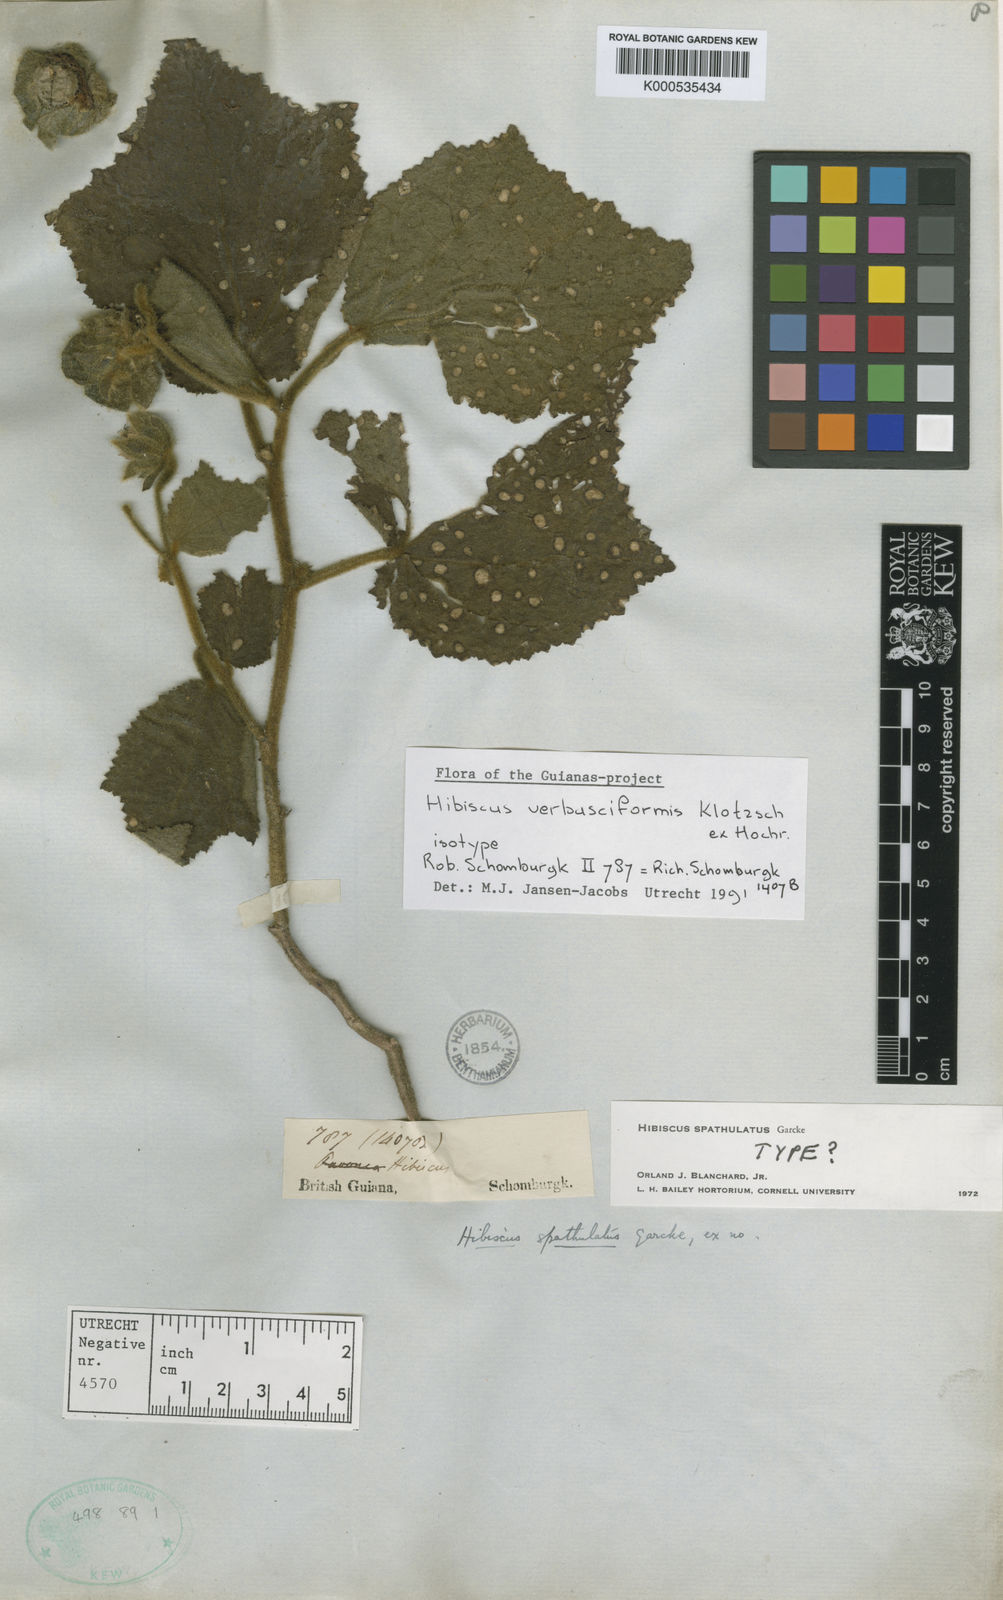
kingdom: Plantae
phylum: Tracheophyta
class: Magnoliopsida
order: Malvales
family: Malvaceae
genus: Hibiscus
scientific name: Hibiscus verbasciformis
